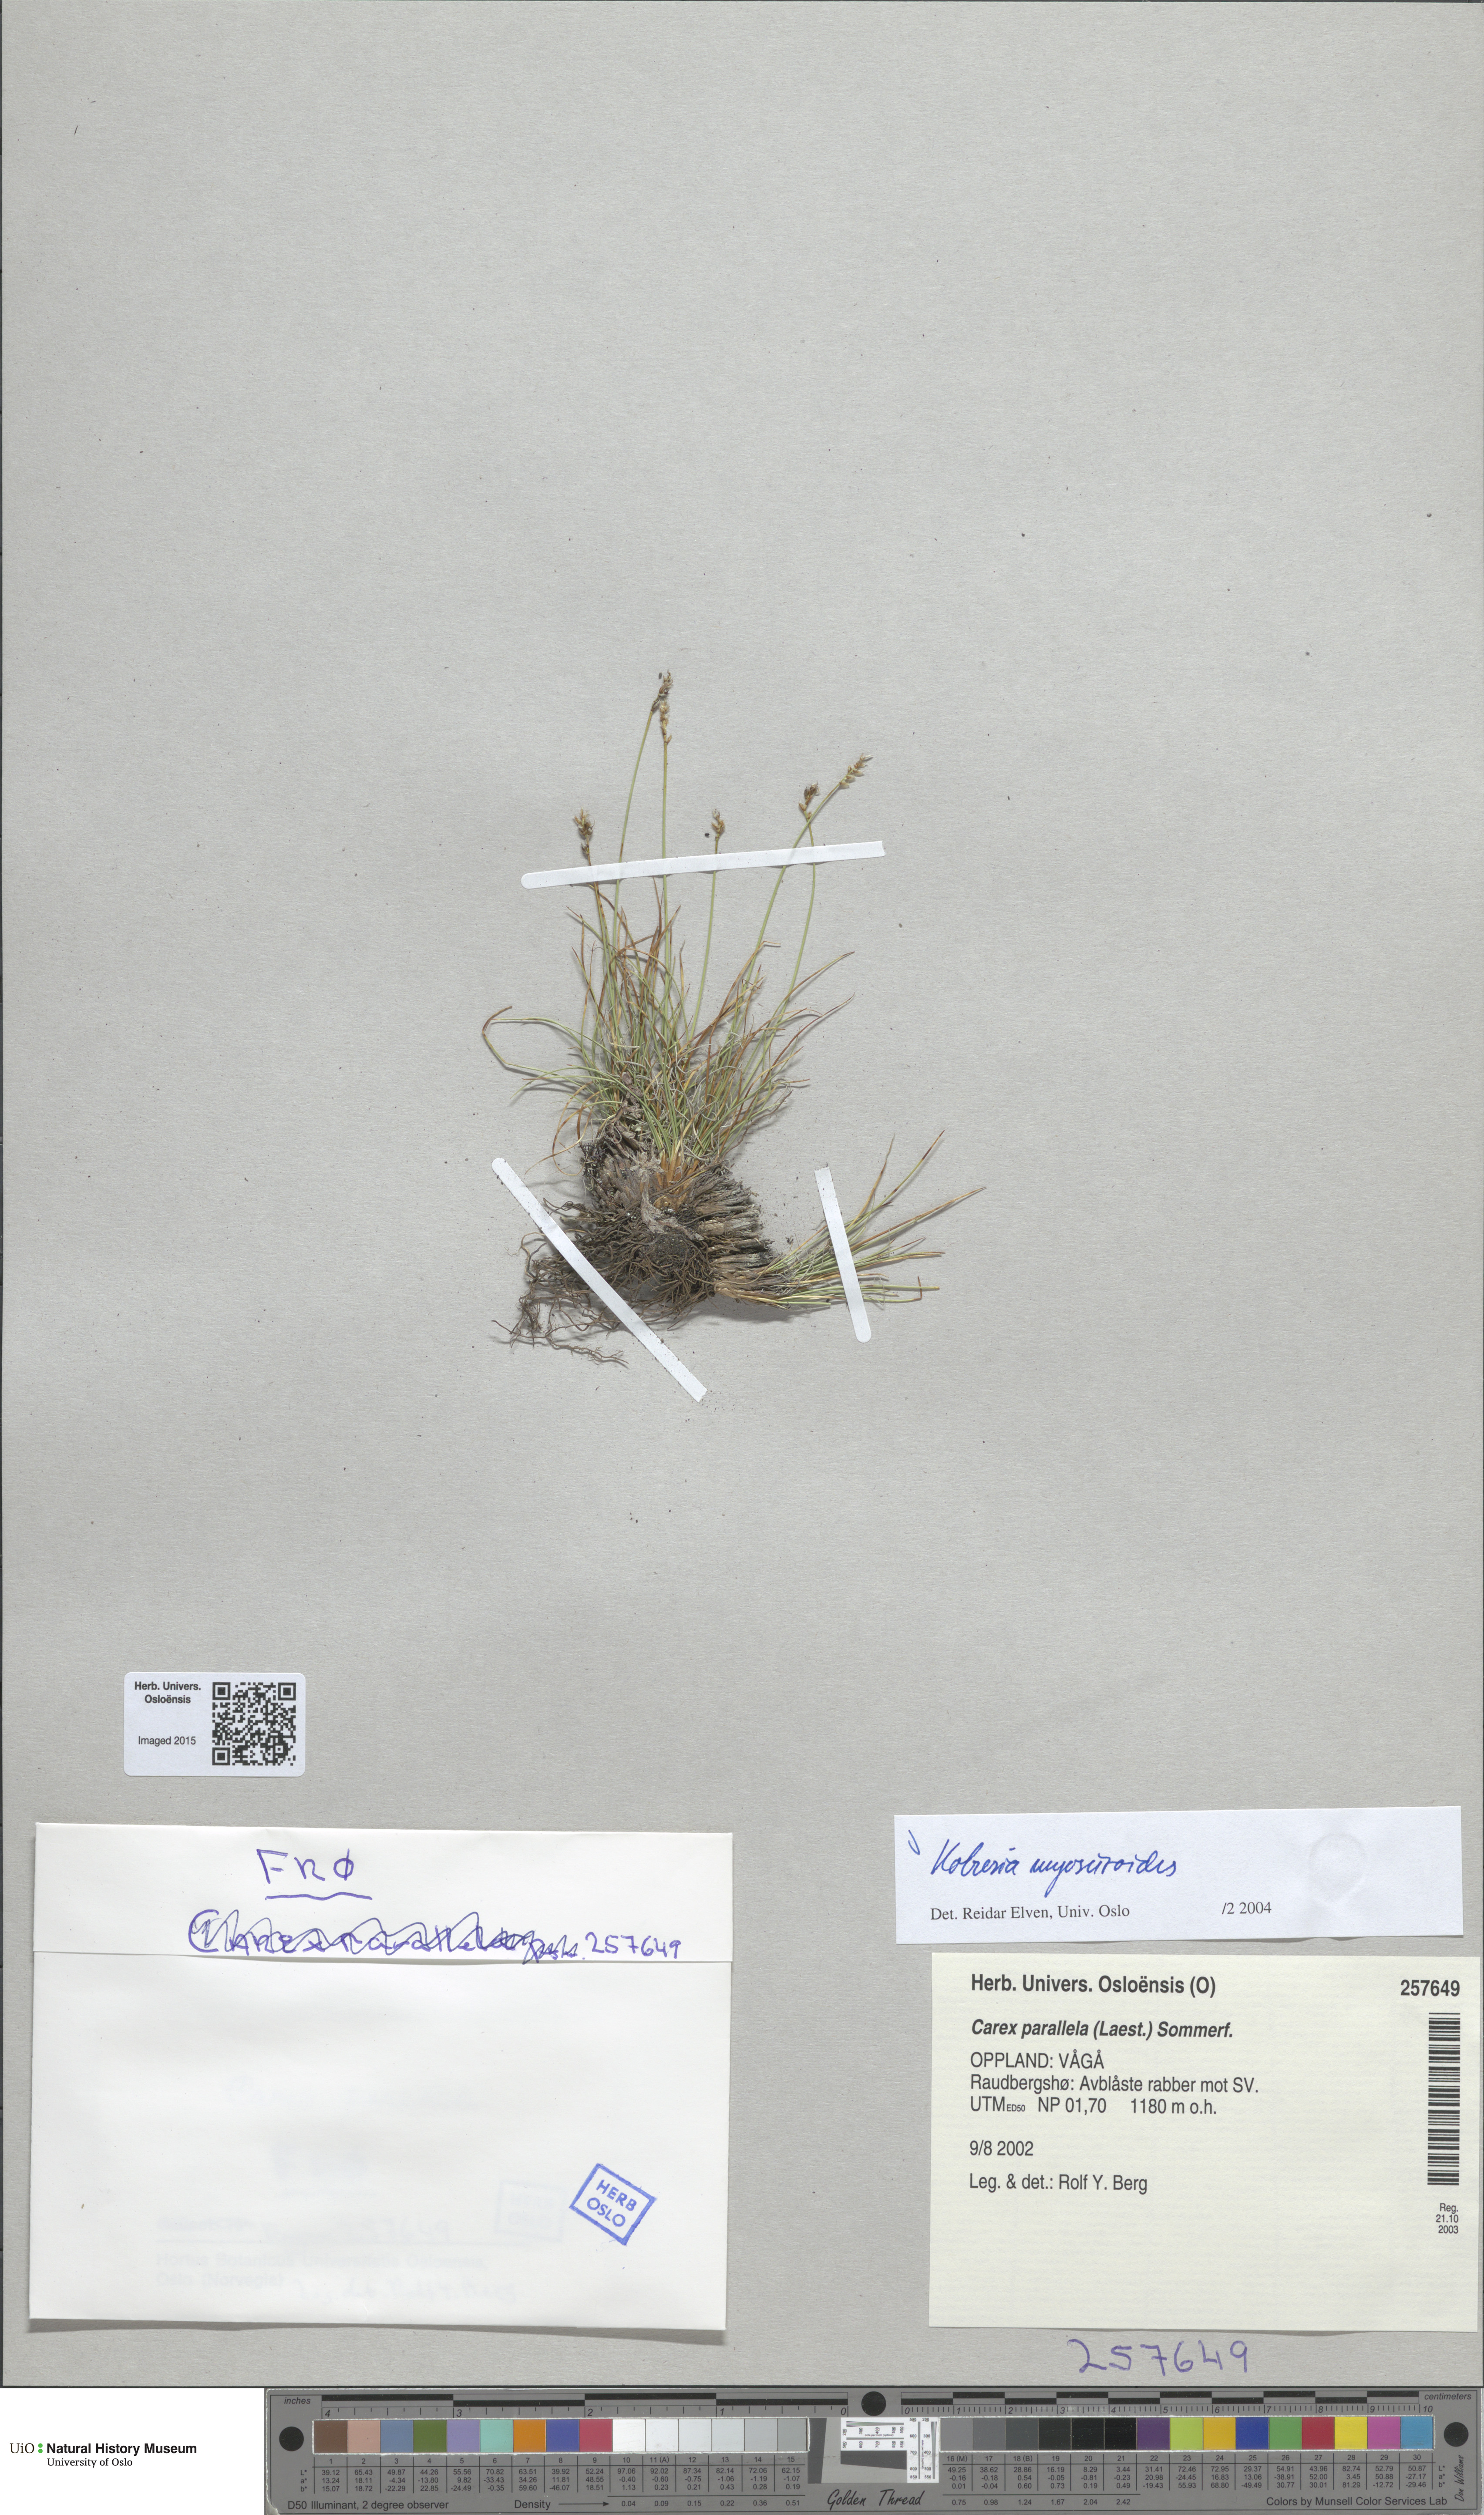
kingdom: Plantae
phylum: Tracheophyta
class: Liliopsida
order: Poales
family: Cyperaceae
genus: Carex
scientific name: Carex myosuroides
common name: Bellard's bog sedge
